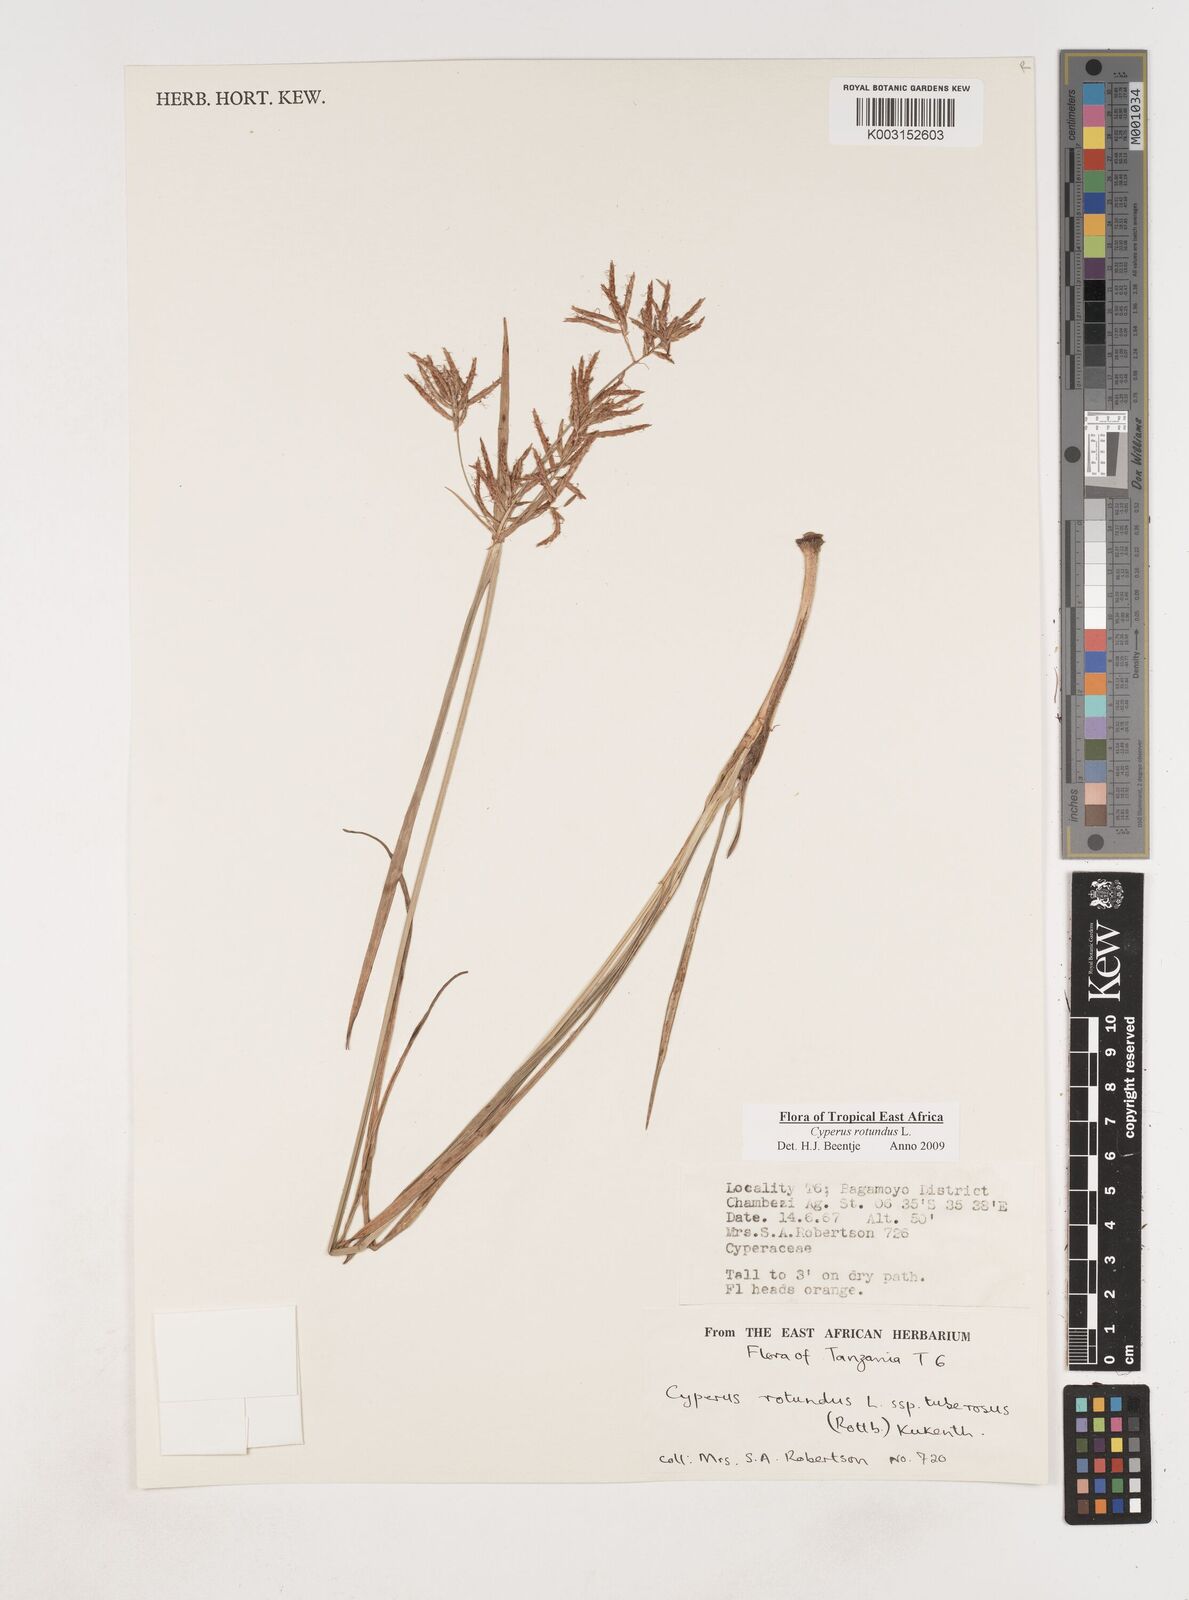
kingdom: Plantae
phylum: Tracheophyta
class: Liliopsida
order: Poales
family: Cyperaceae
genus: Cyperus
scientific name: Cyperus tuberosus
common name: Nut grass
